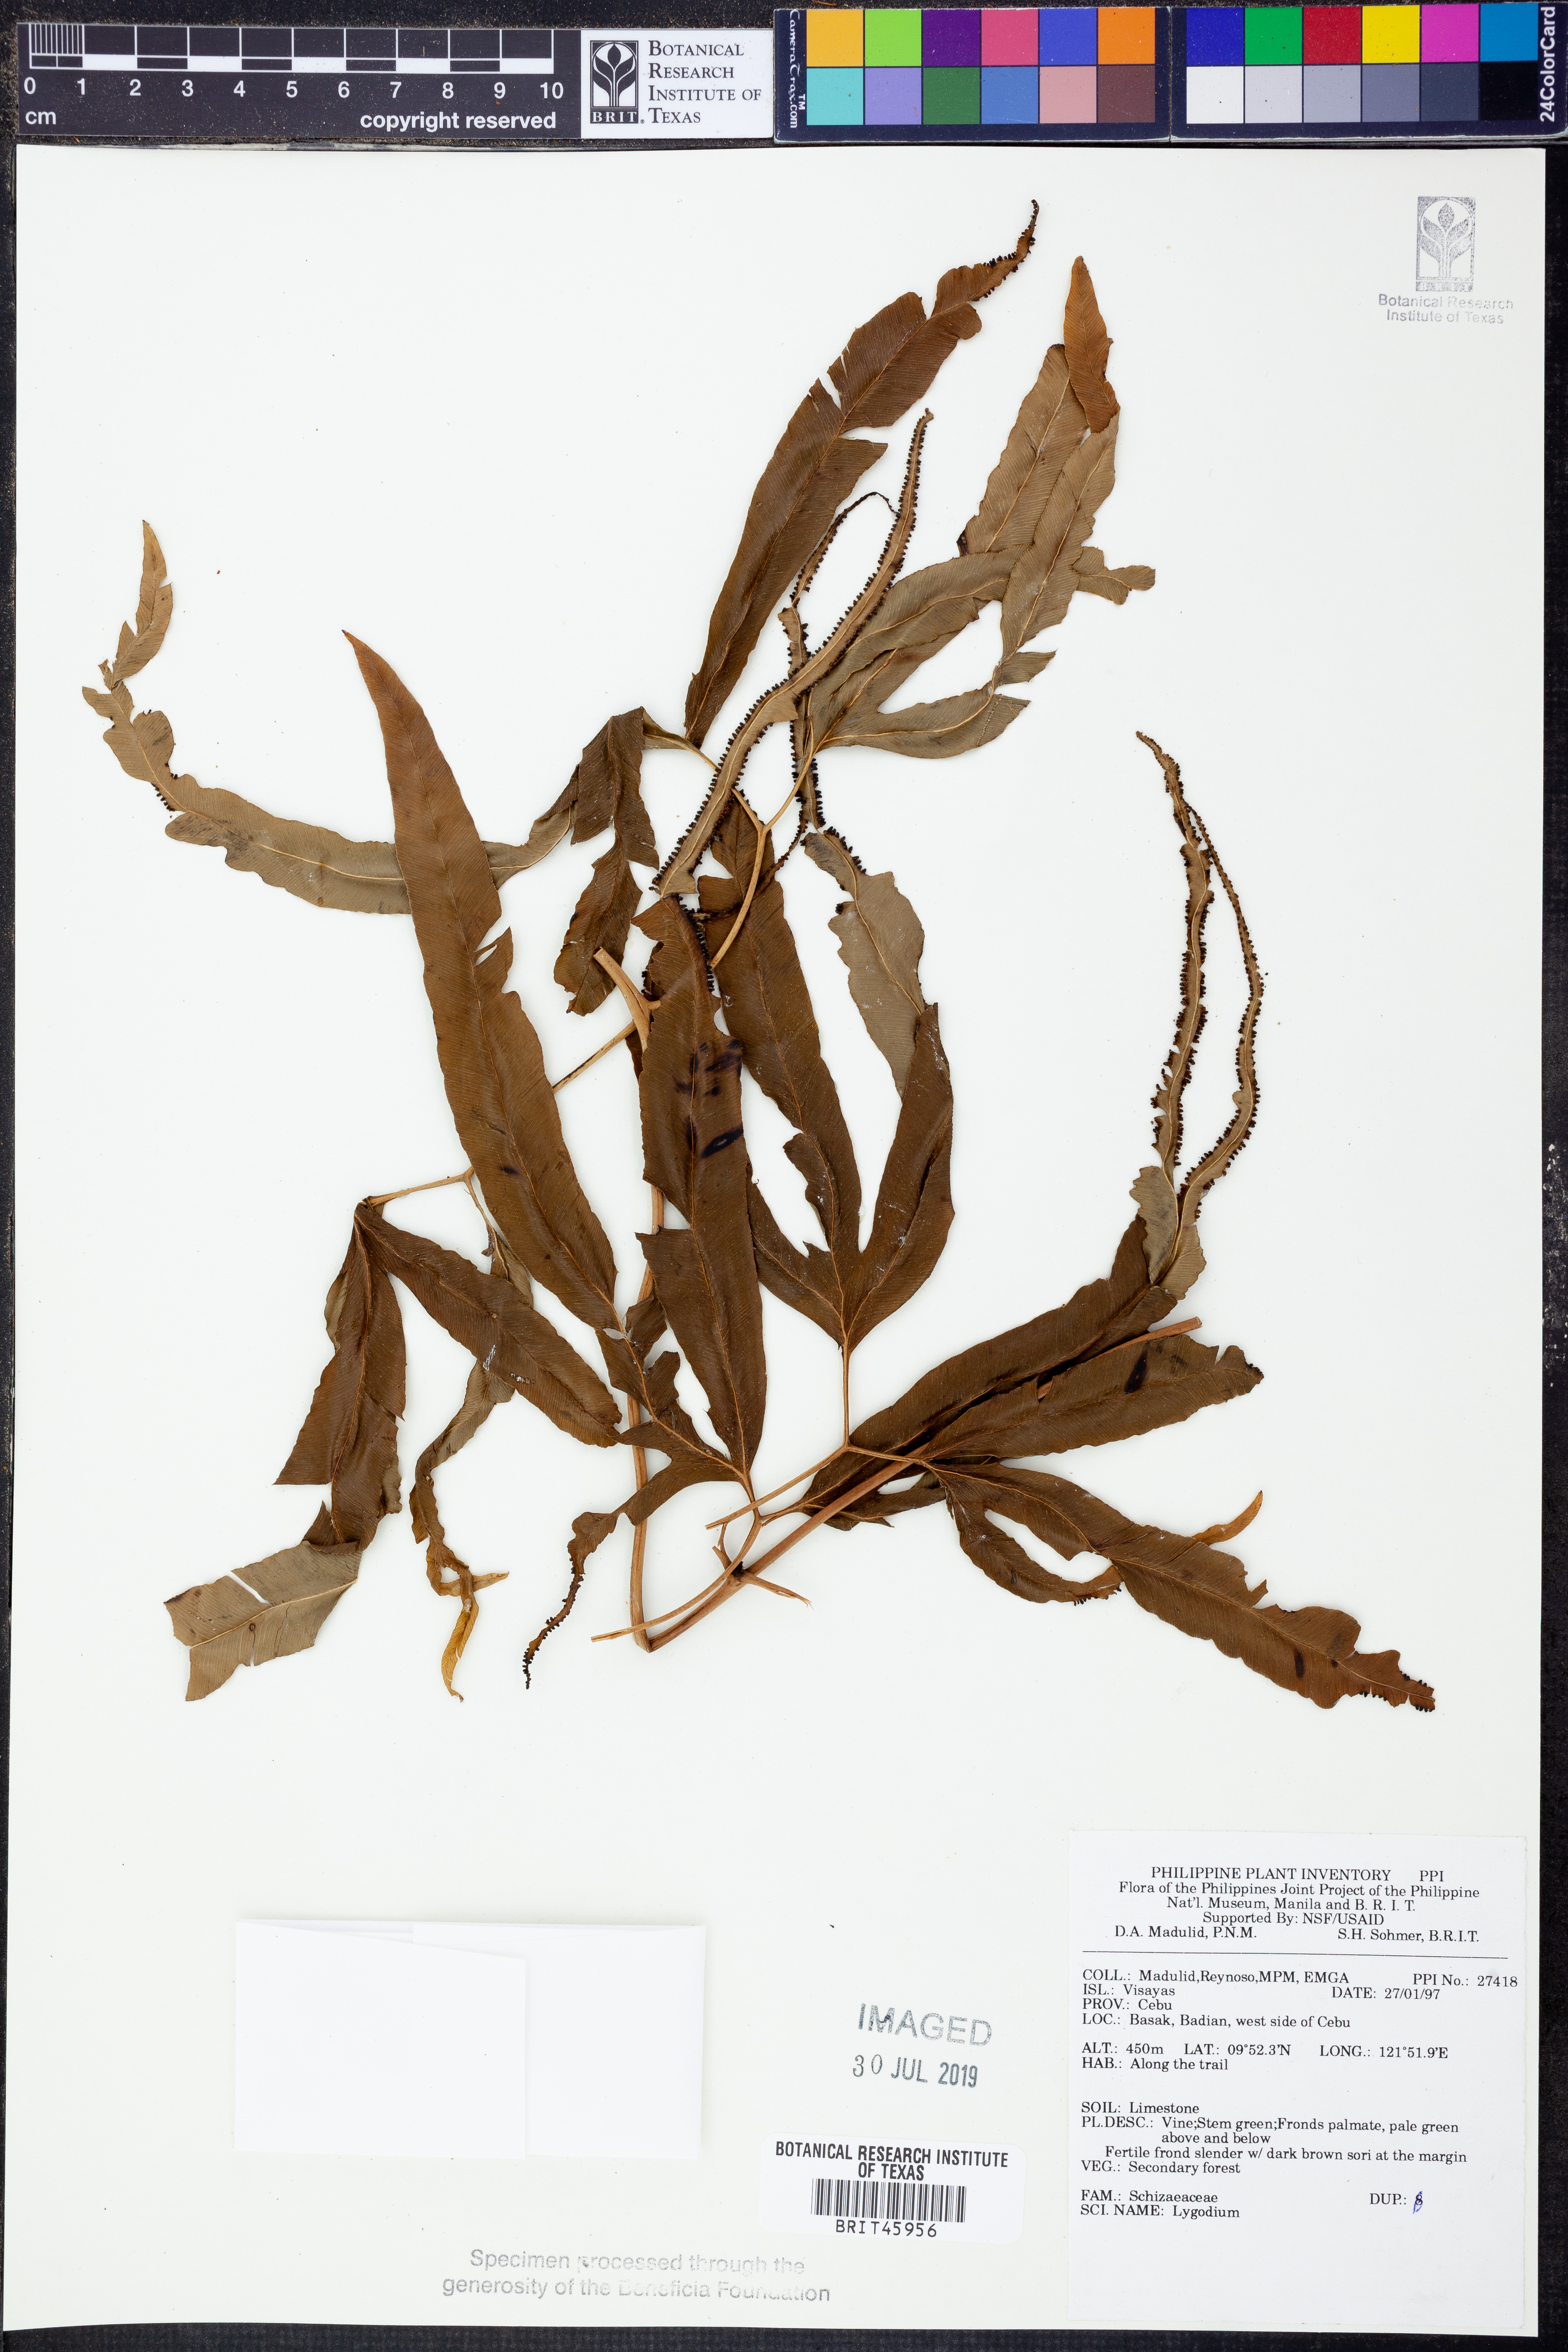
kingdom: Plantae
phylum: Tracheophyta
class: Polypodiopsida
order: Schizaeales
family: Lygodiaceae
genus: Lygodium
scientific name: Lygodium
